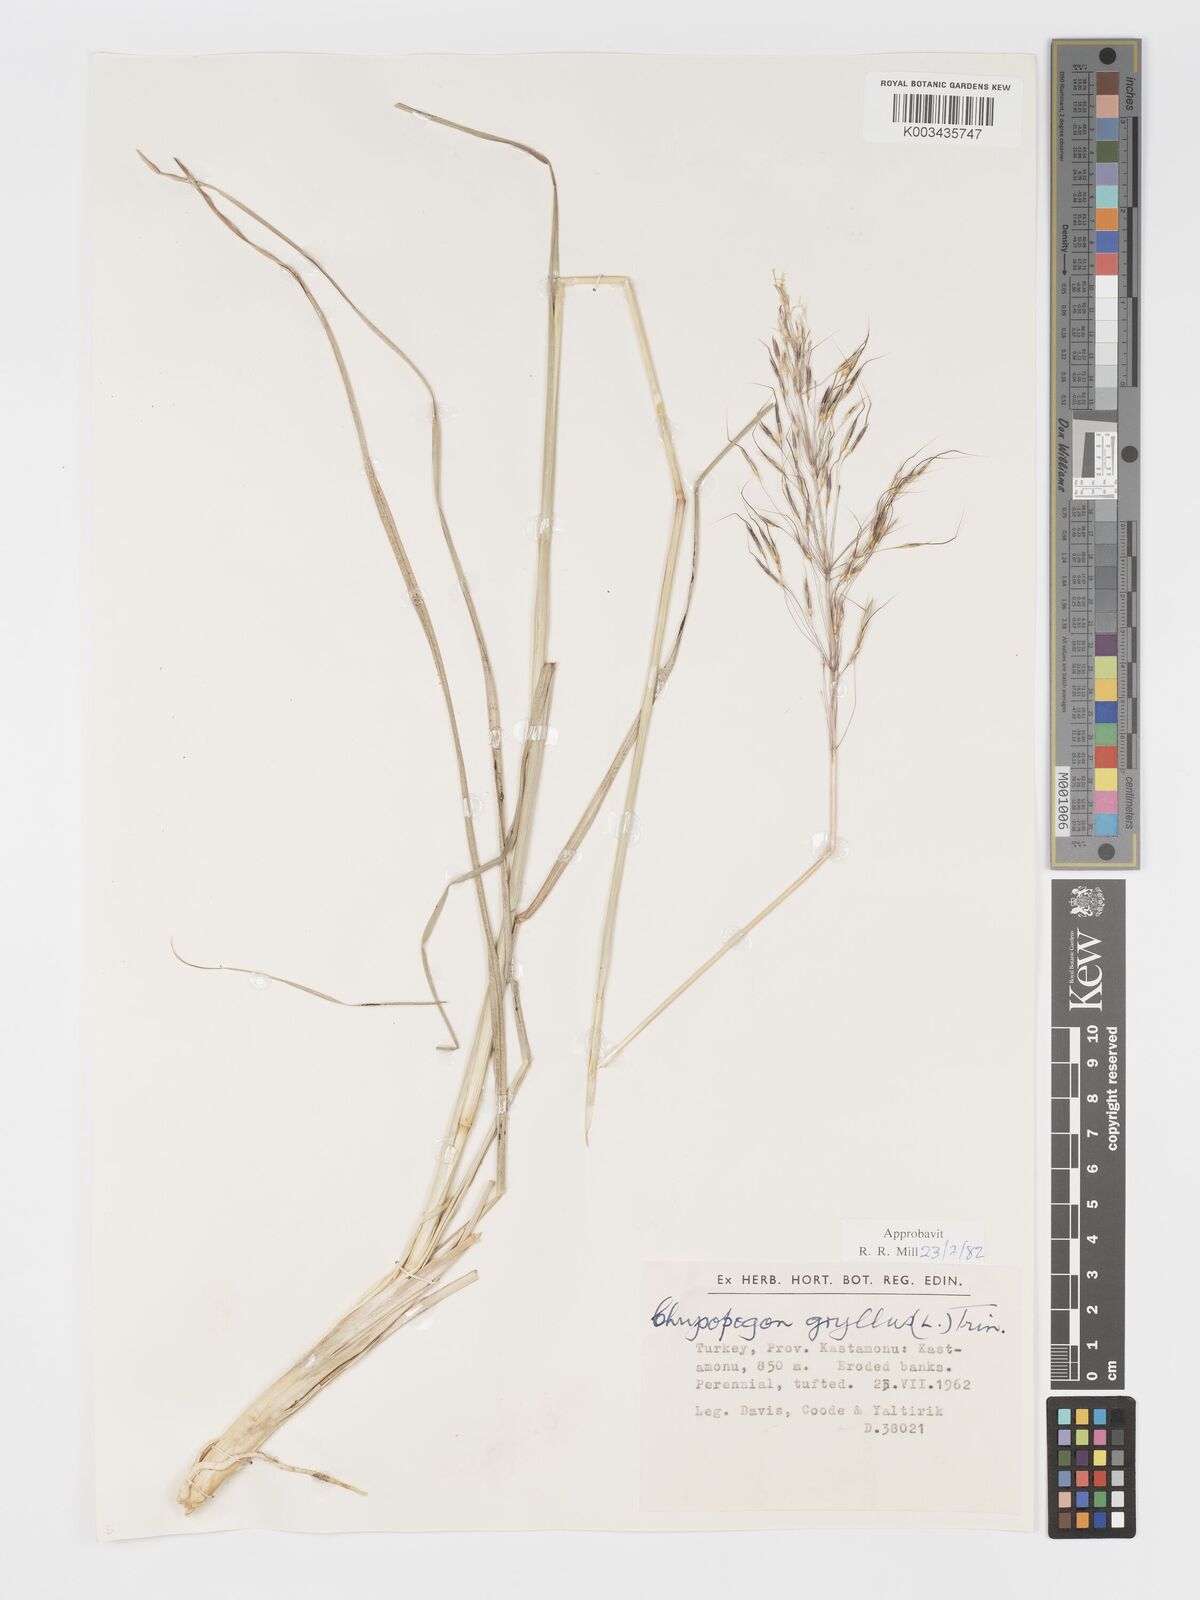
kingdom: Plantae
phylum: Tracheophyta
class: Liliopsida
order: Poales
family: Poaceae
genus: Chrysopogon
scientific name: Chrysopogon gryllus
